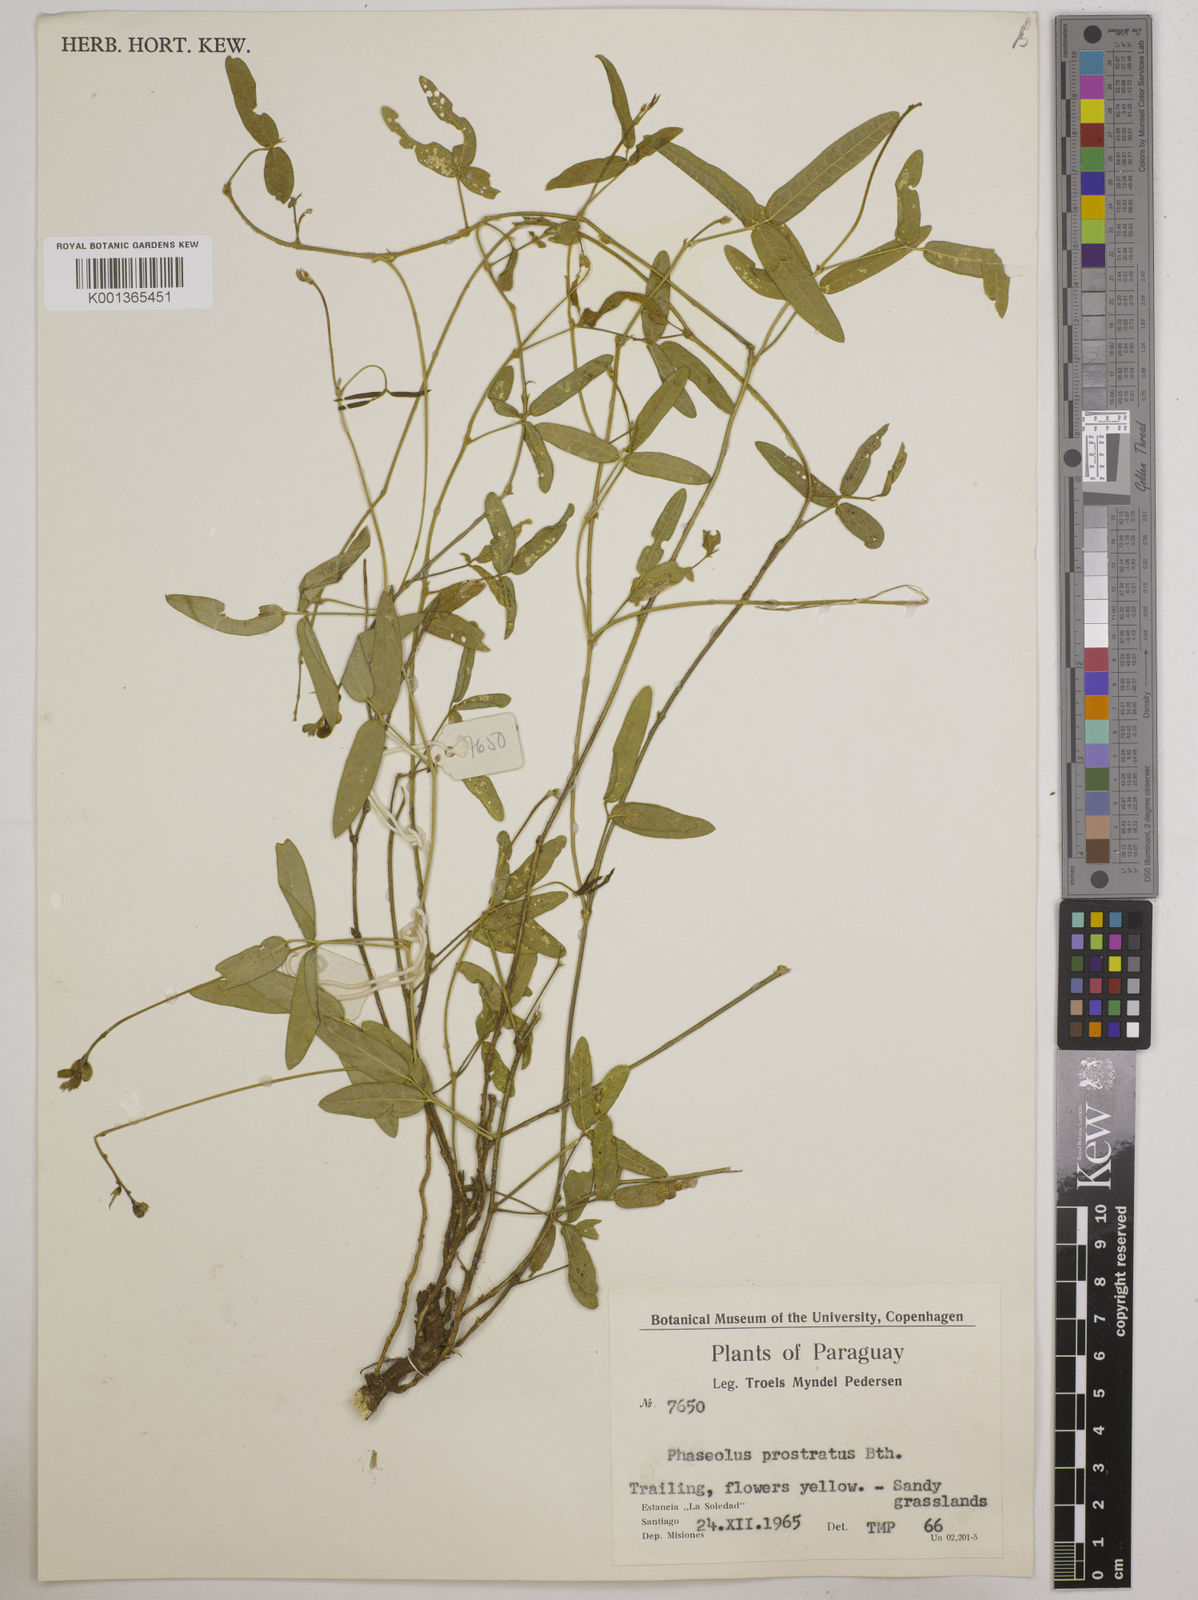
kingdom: Plantae
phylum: Tracheophyta
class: Magnoliopsida
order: Fabales
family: Fabaceae
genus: Macroptilium
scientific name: Macroptilium prostratum
